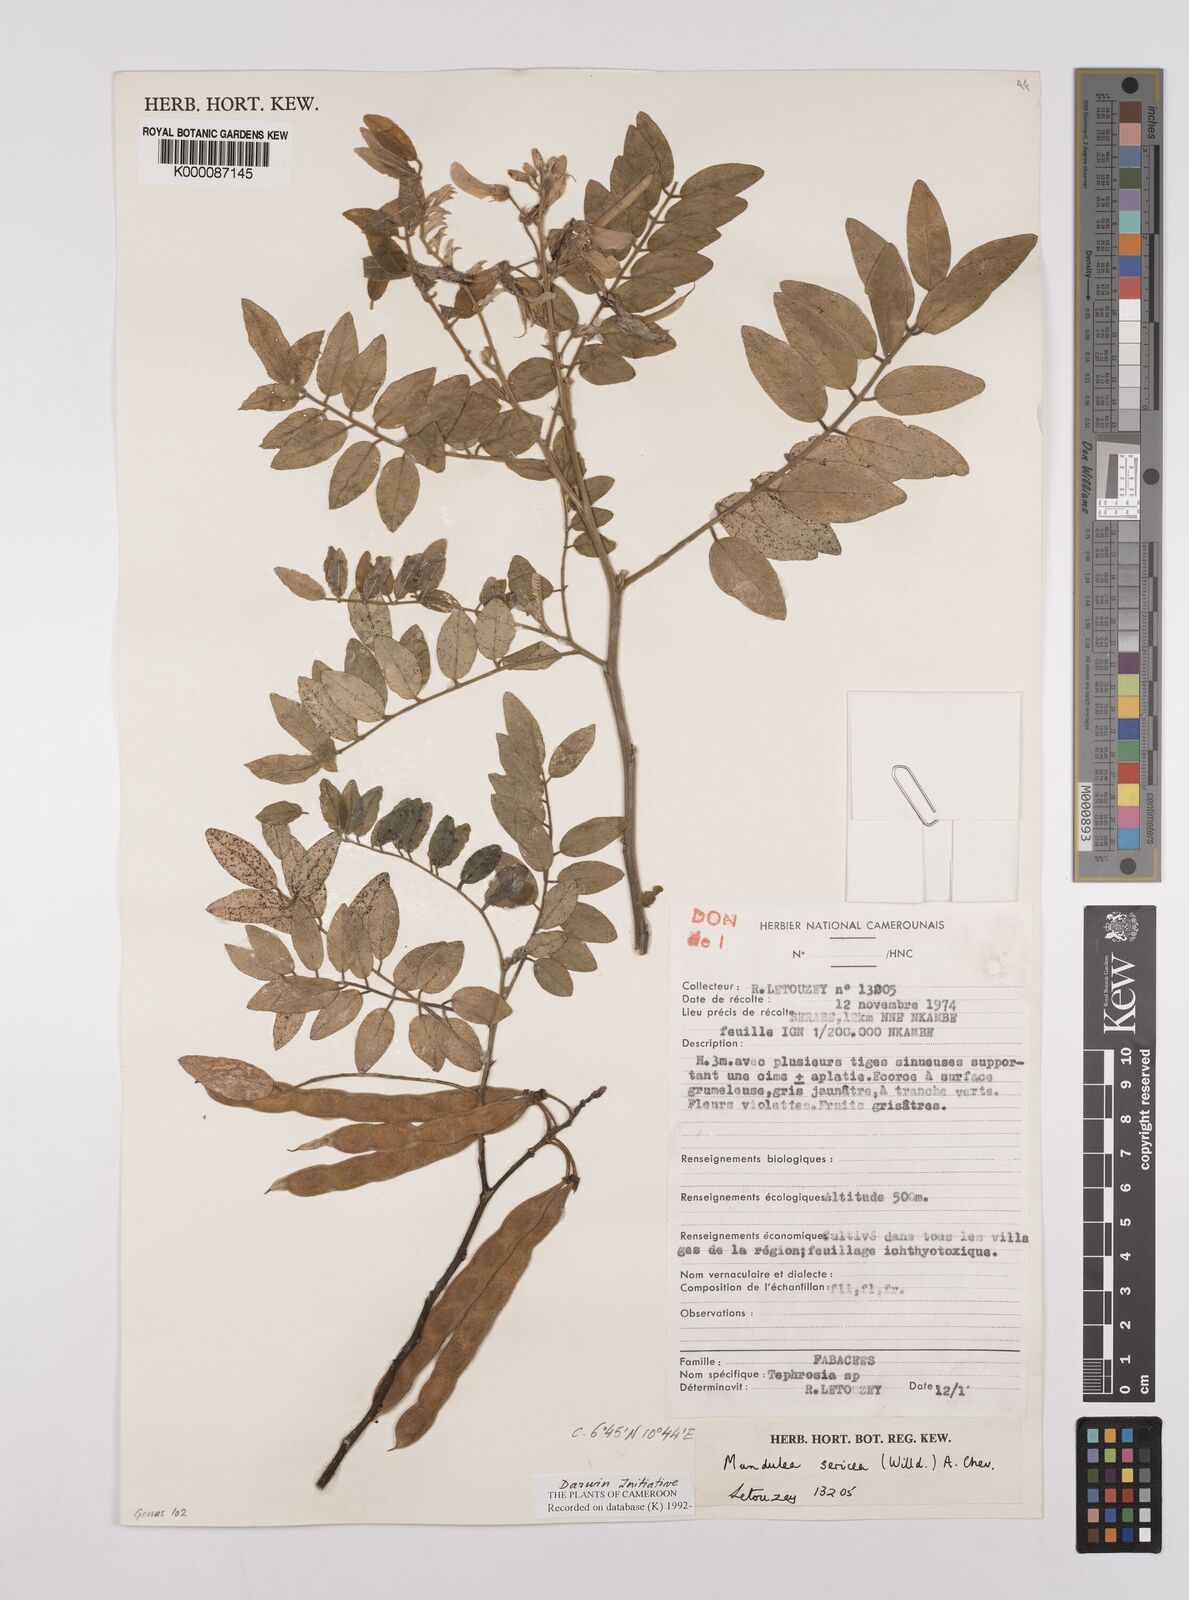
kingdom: Plantae
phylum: Tracheophyta
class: Magnoliopsida
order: Fabales
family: Fabaceae
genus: Mundulea
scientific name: Mundulea sericea
